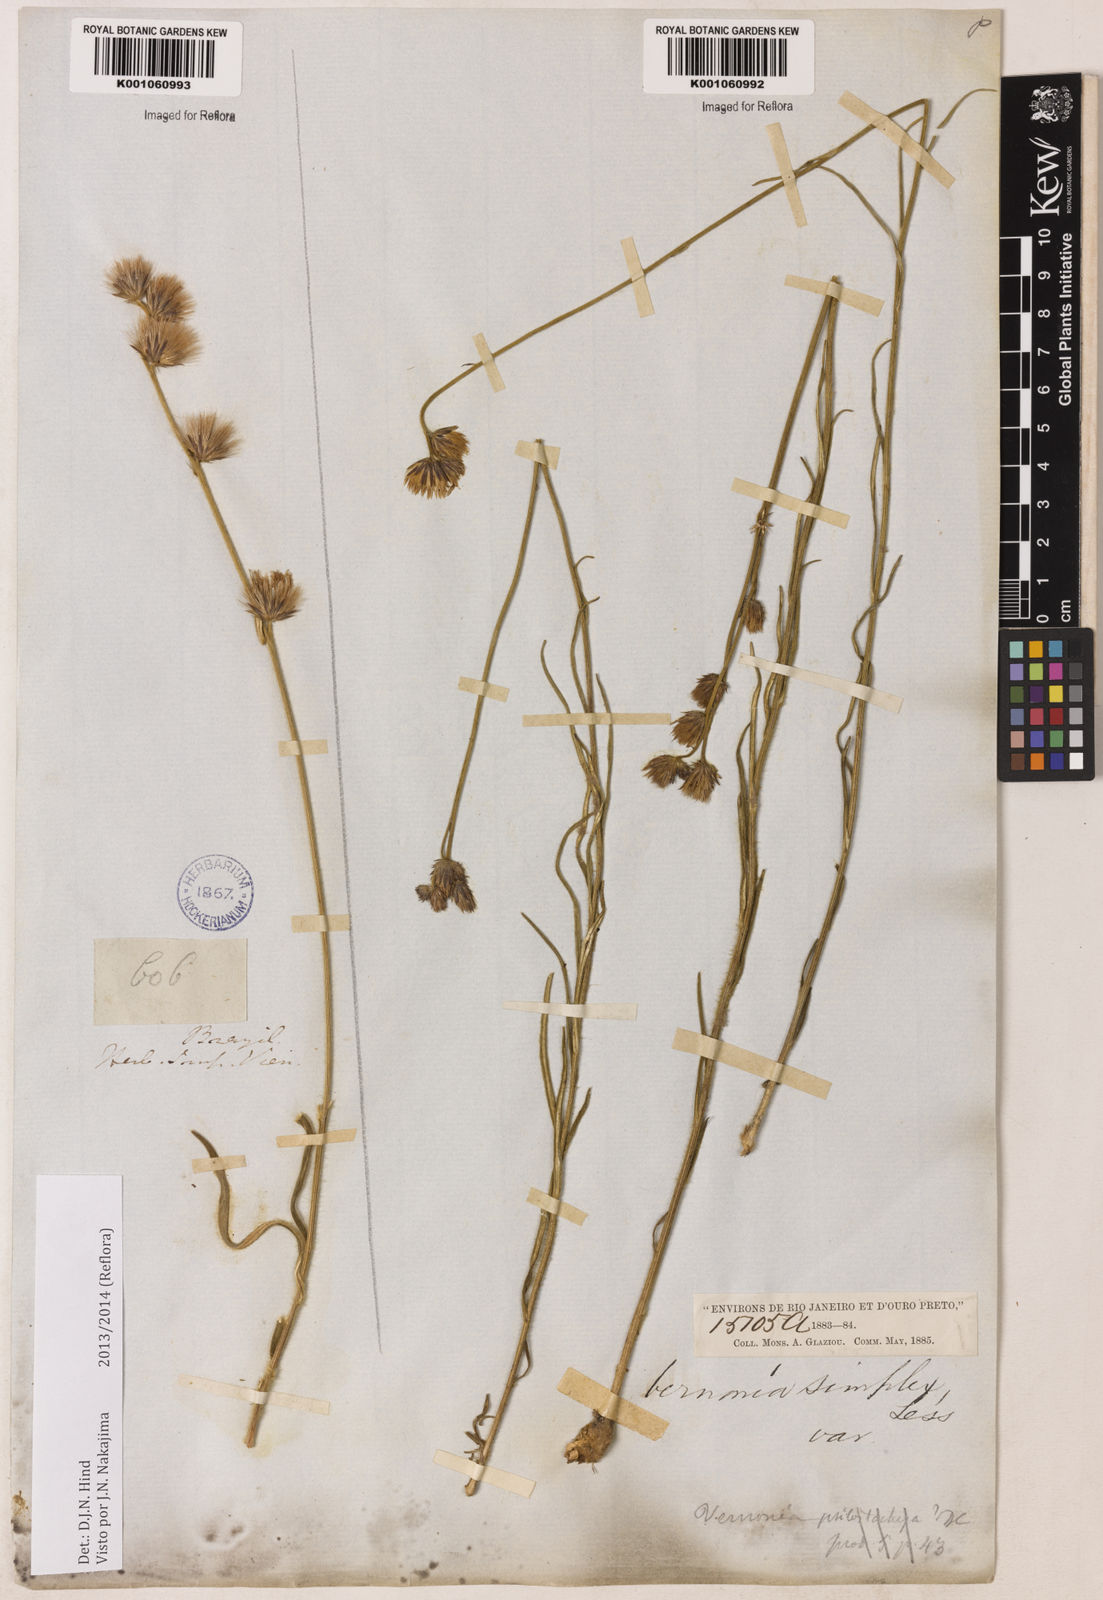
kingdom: Plantae
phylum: Tracheophyta
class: Magnoliopsida
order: Asterales
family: Asteraceae
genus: Chrysolaena
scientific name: Chrysolaena simplex
